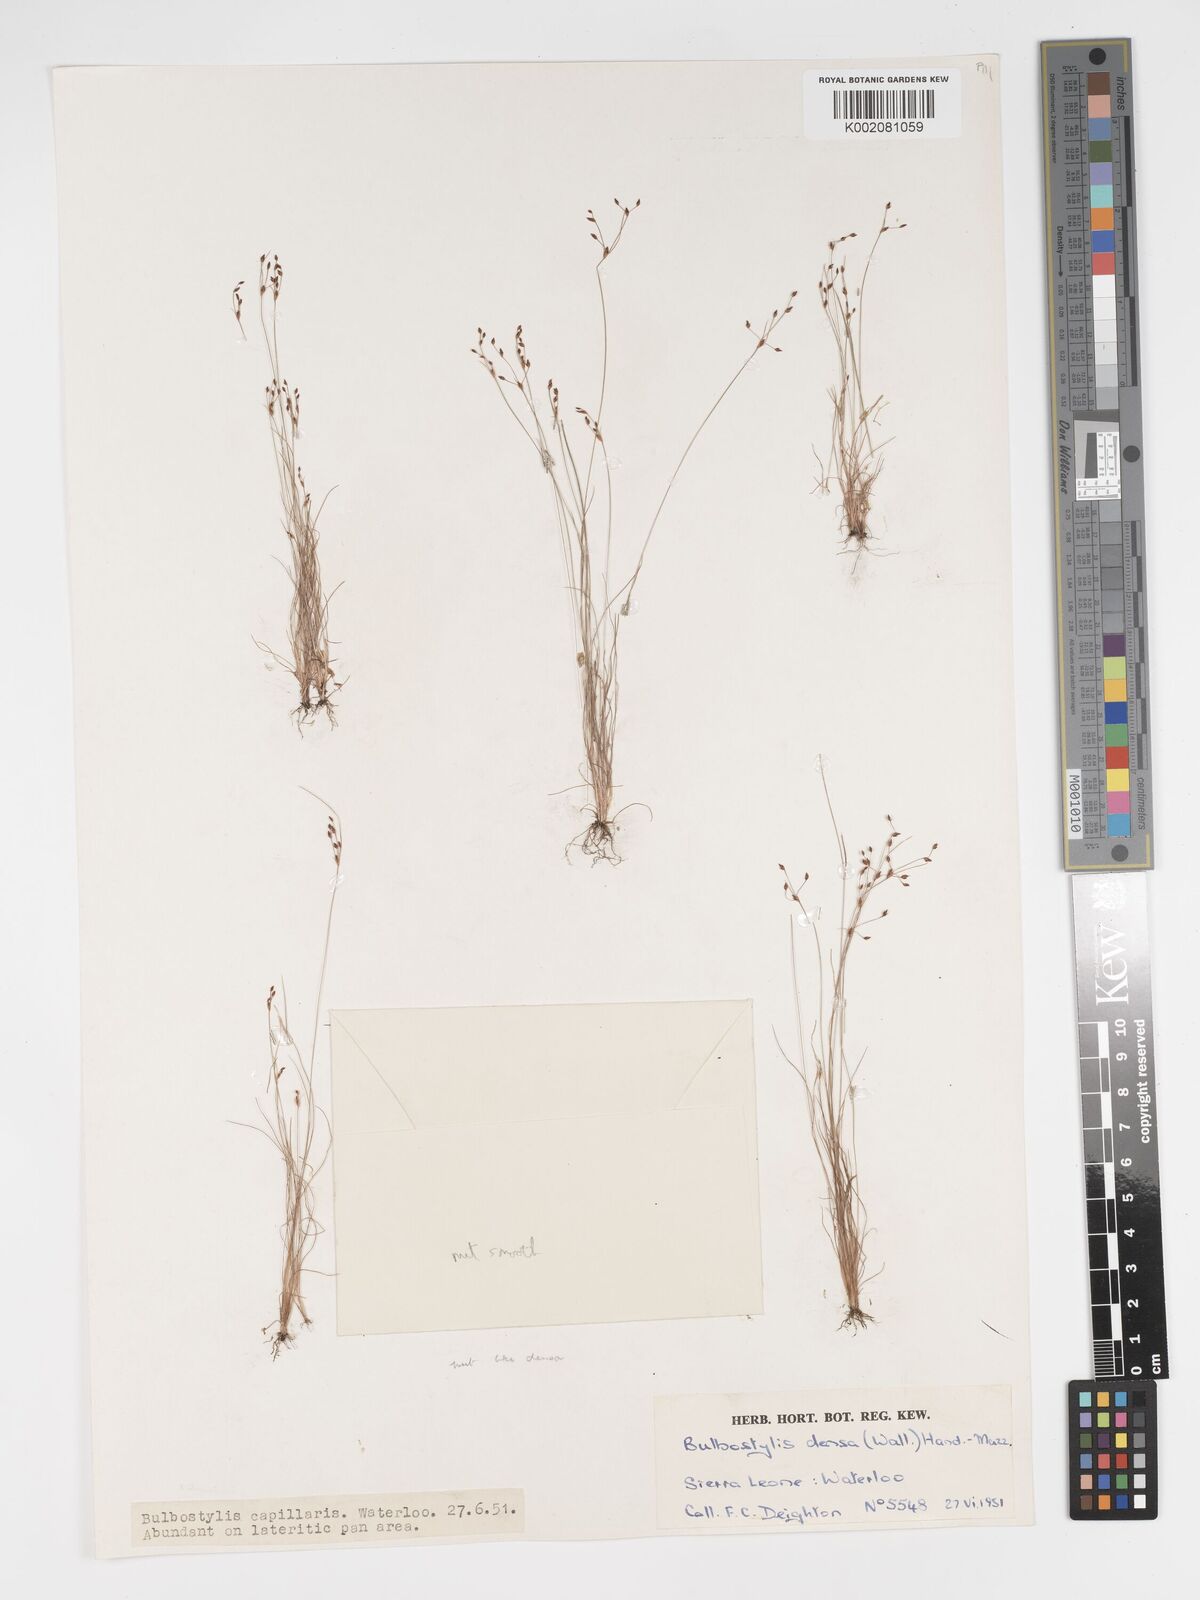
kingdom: Plantae
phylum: Tracheophyta
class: Liliopsida
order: Poales
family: Cyperaceae
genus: Bulbostylis
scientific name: Bulbostylis densa
